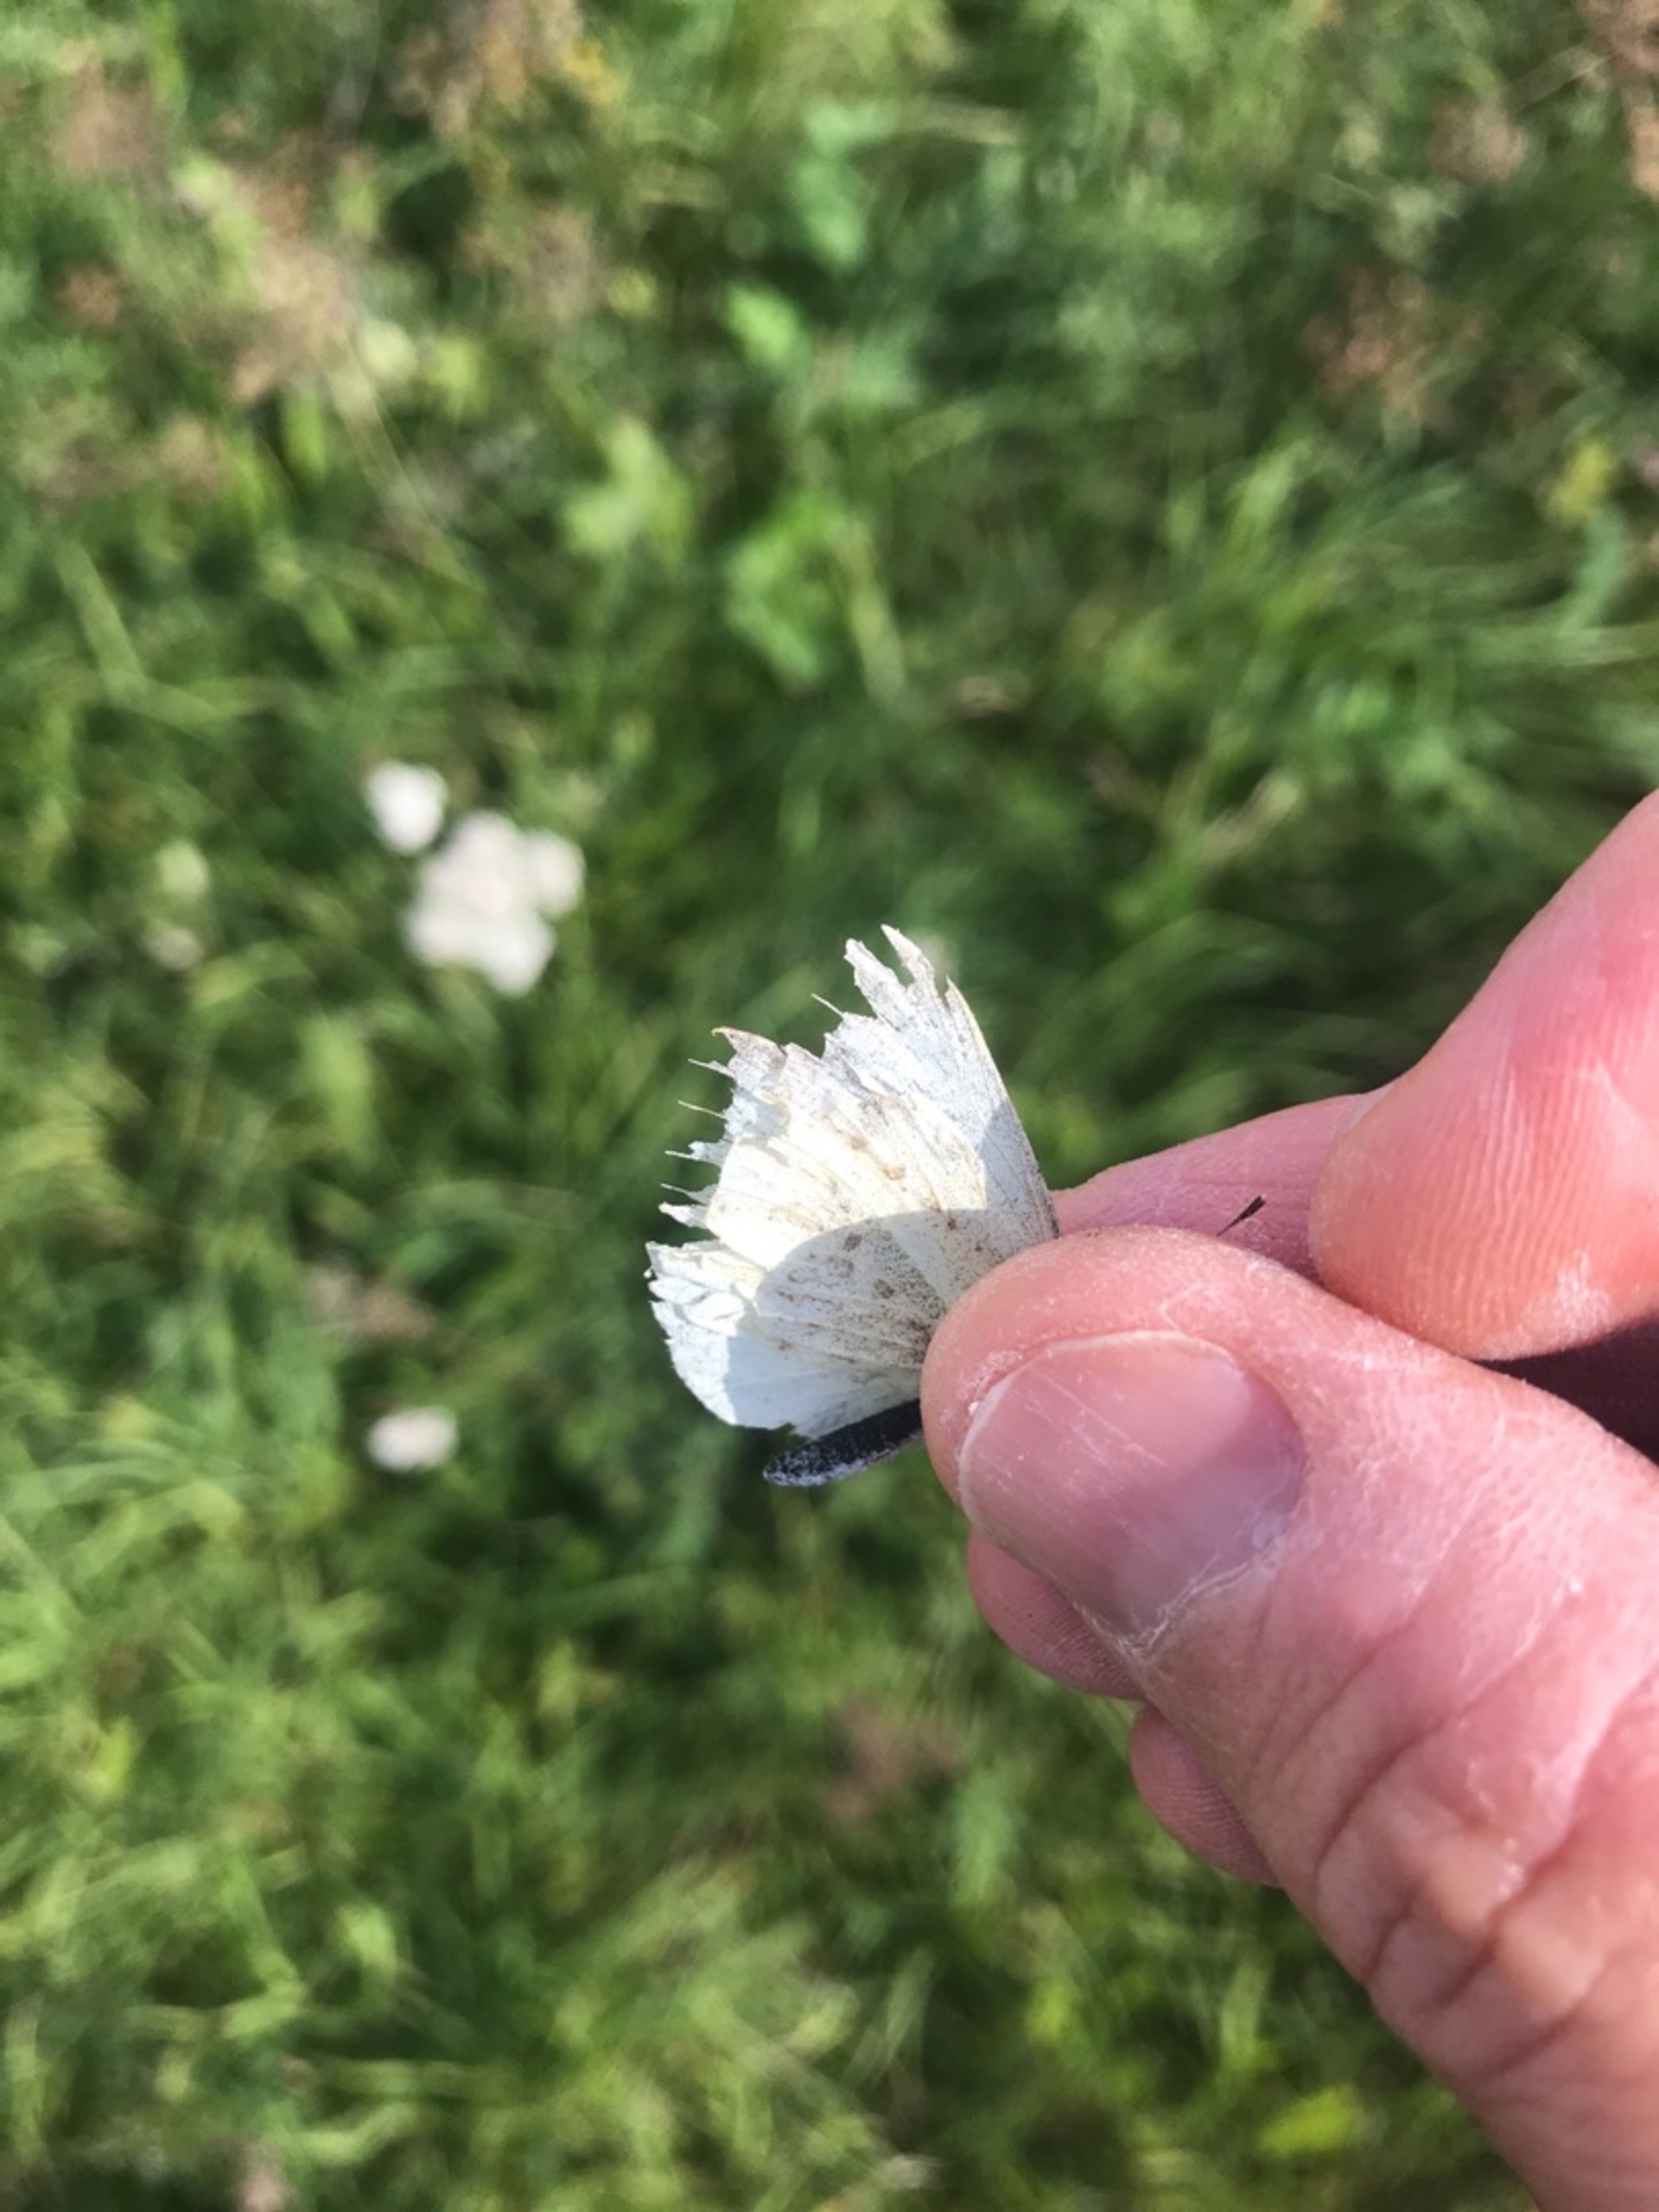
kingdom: Animalia
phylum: Arthropoda
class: Insecta
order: Lepidoptera
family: Pieridae
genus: Pieris
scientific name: Pieris rapae
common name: Lille kålsommerfugl
